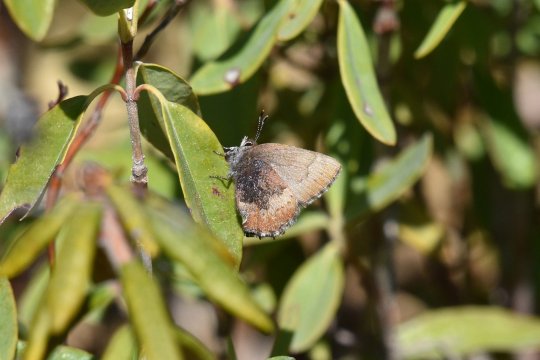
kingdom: Animalia
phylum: Arthropoda
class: Insecta
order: Lepidoptera
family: Lycaenidae
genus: Incisalia
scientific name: Incisalia irioides
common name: Brown Elfin
